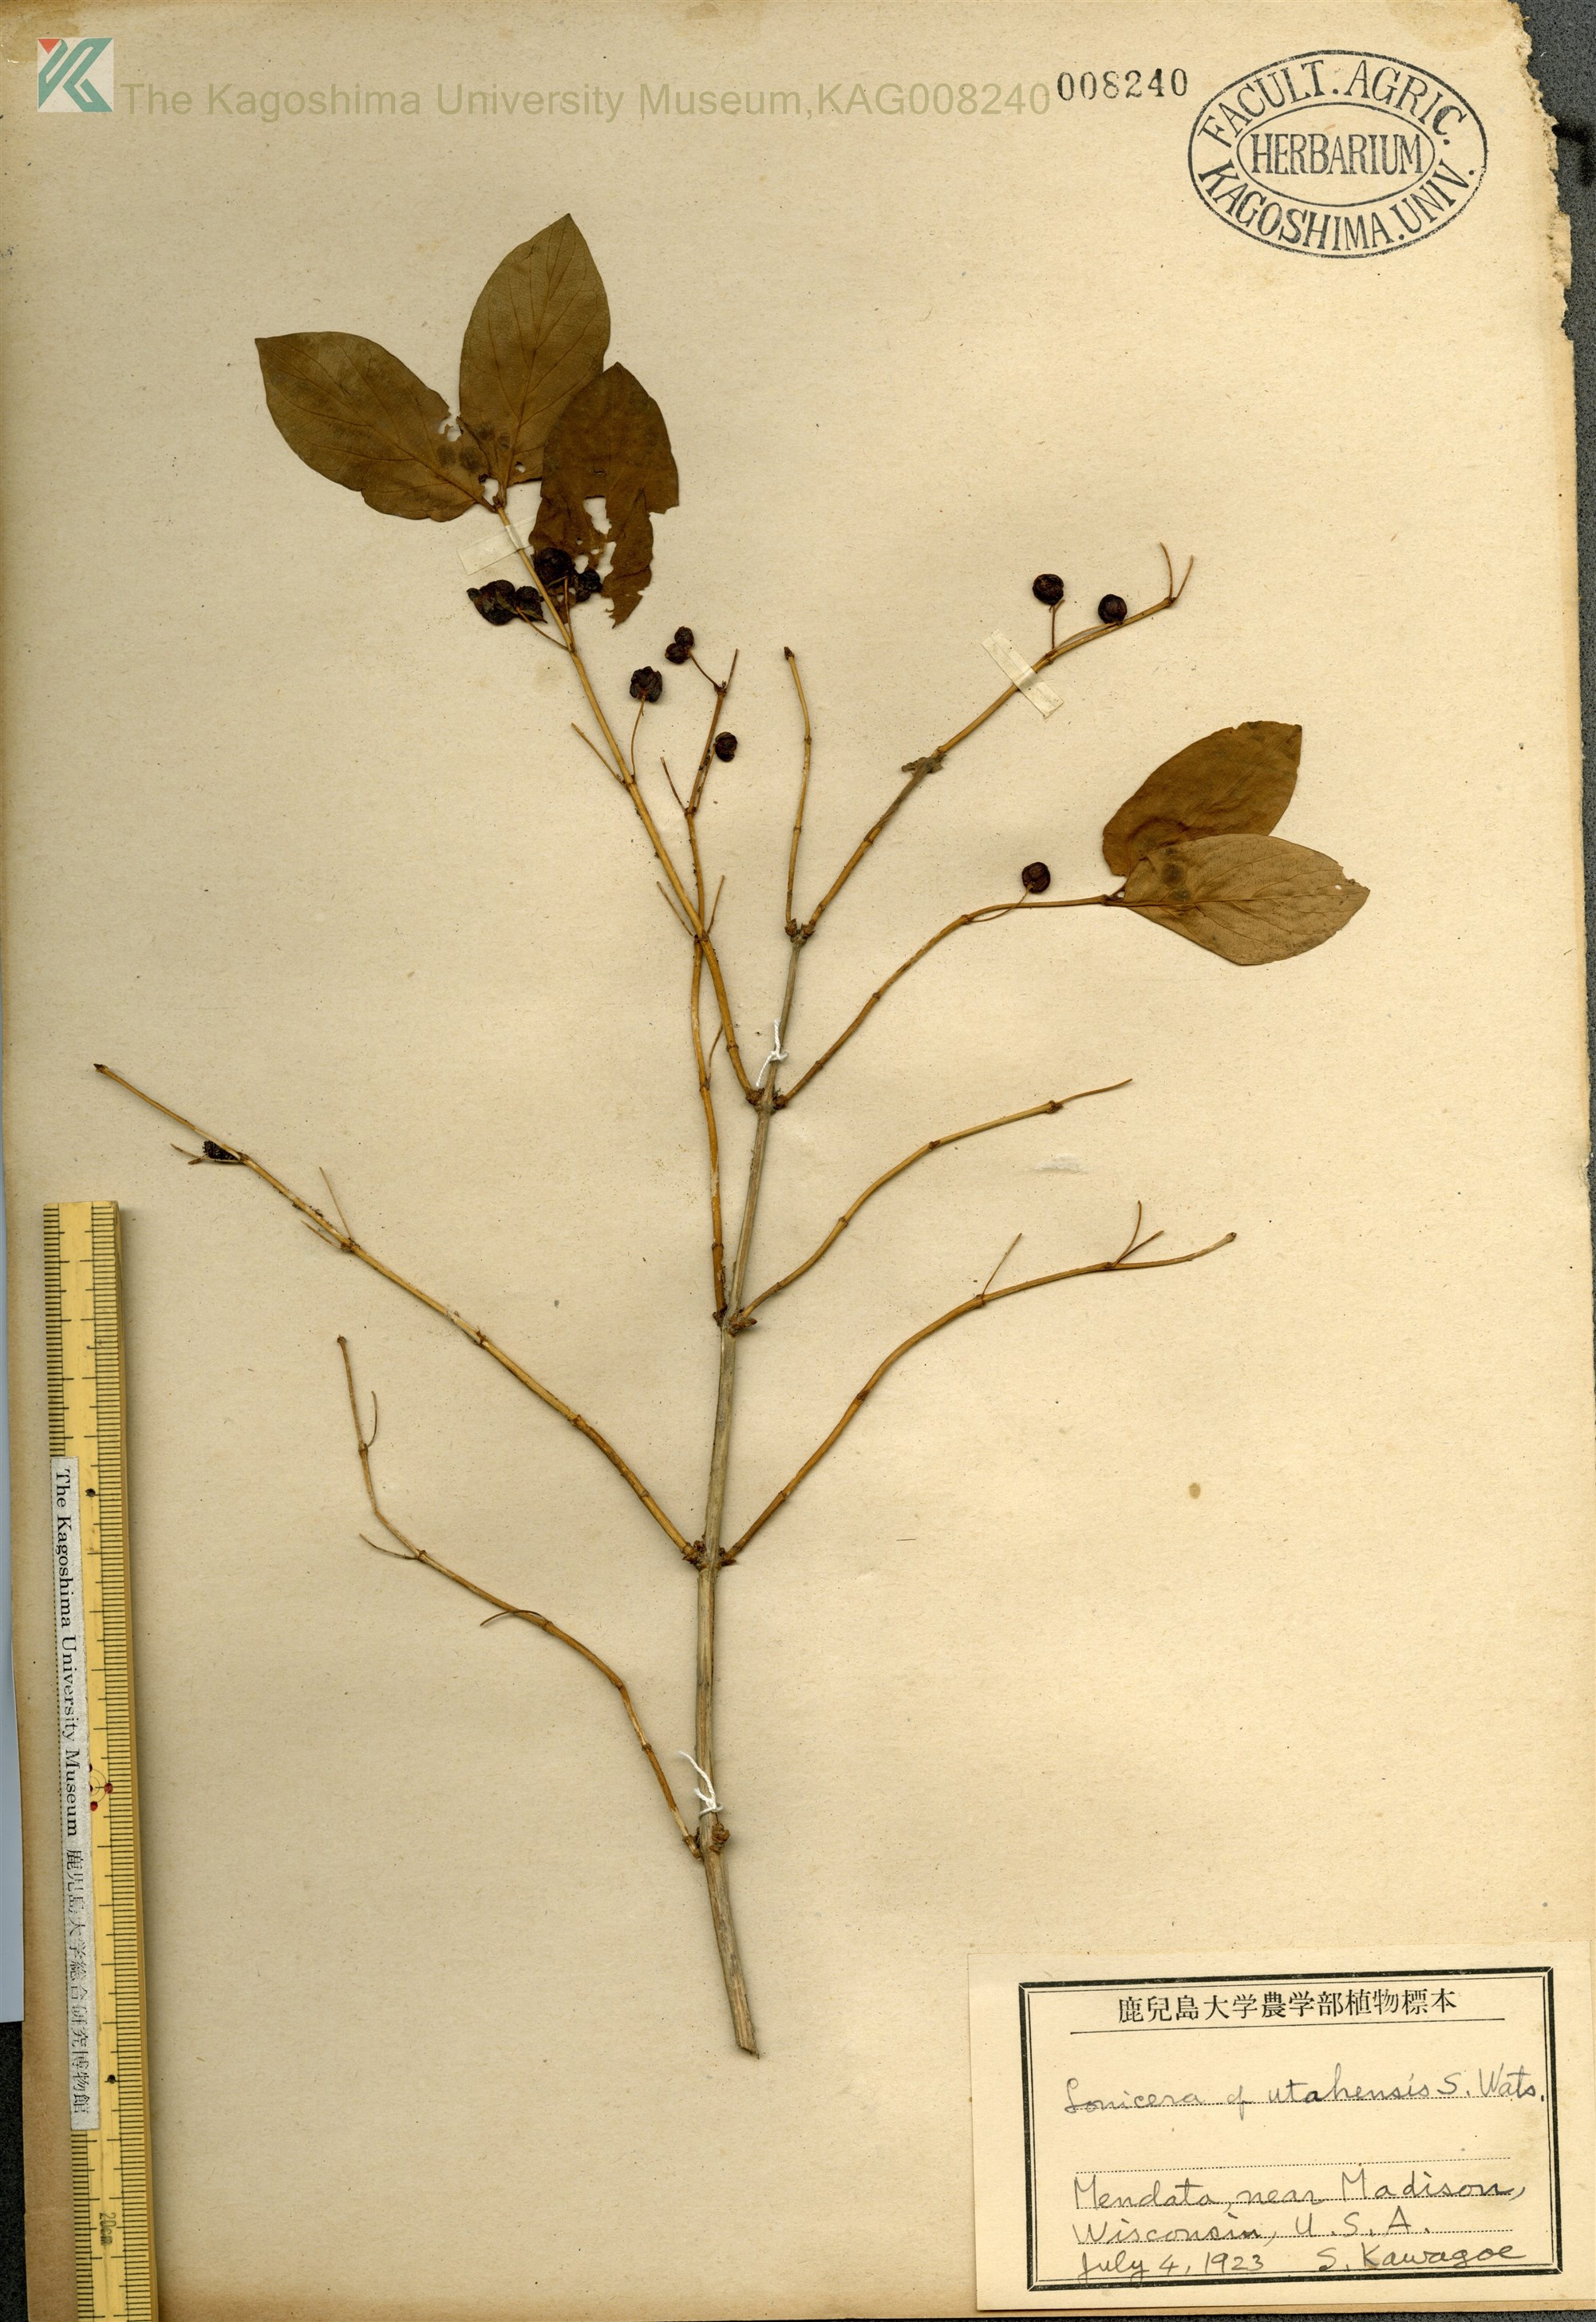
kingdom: Plantae
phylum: Tracheophyta
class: Magnoliopsida
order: Dipsacales
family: Caprifoliaceae
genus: Lonicera
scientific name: Lonicera utahensis
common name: Utah honeysuckle
